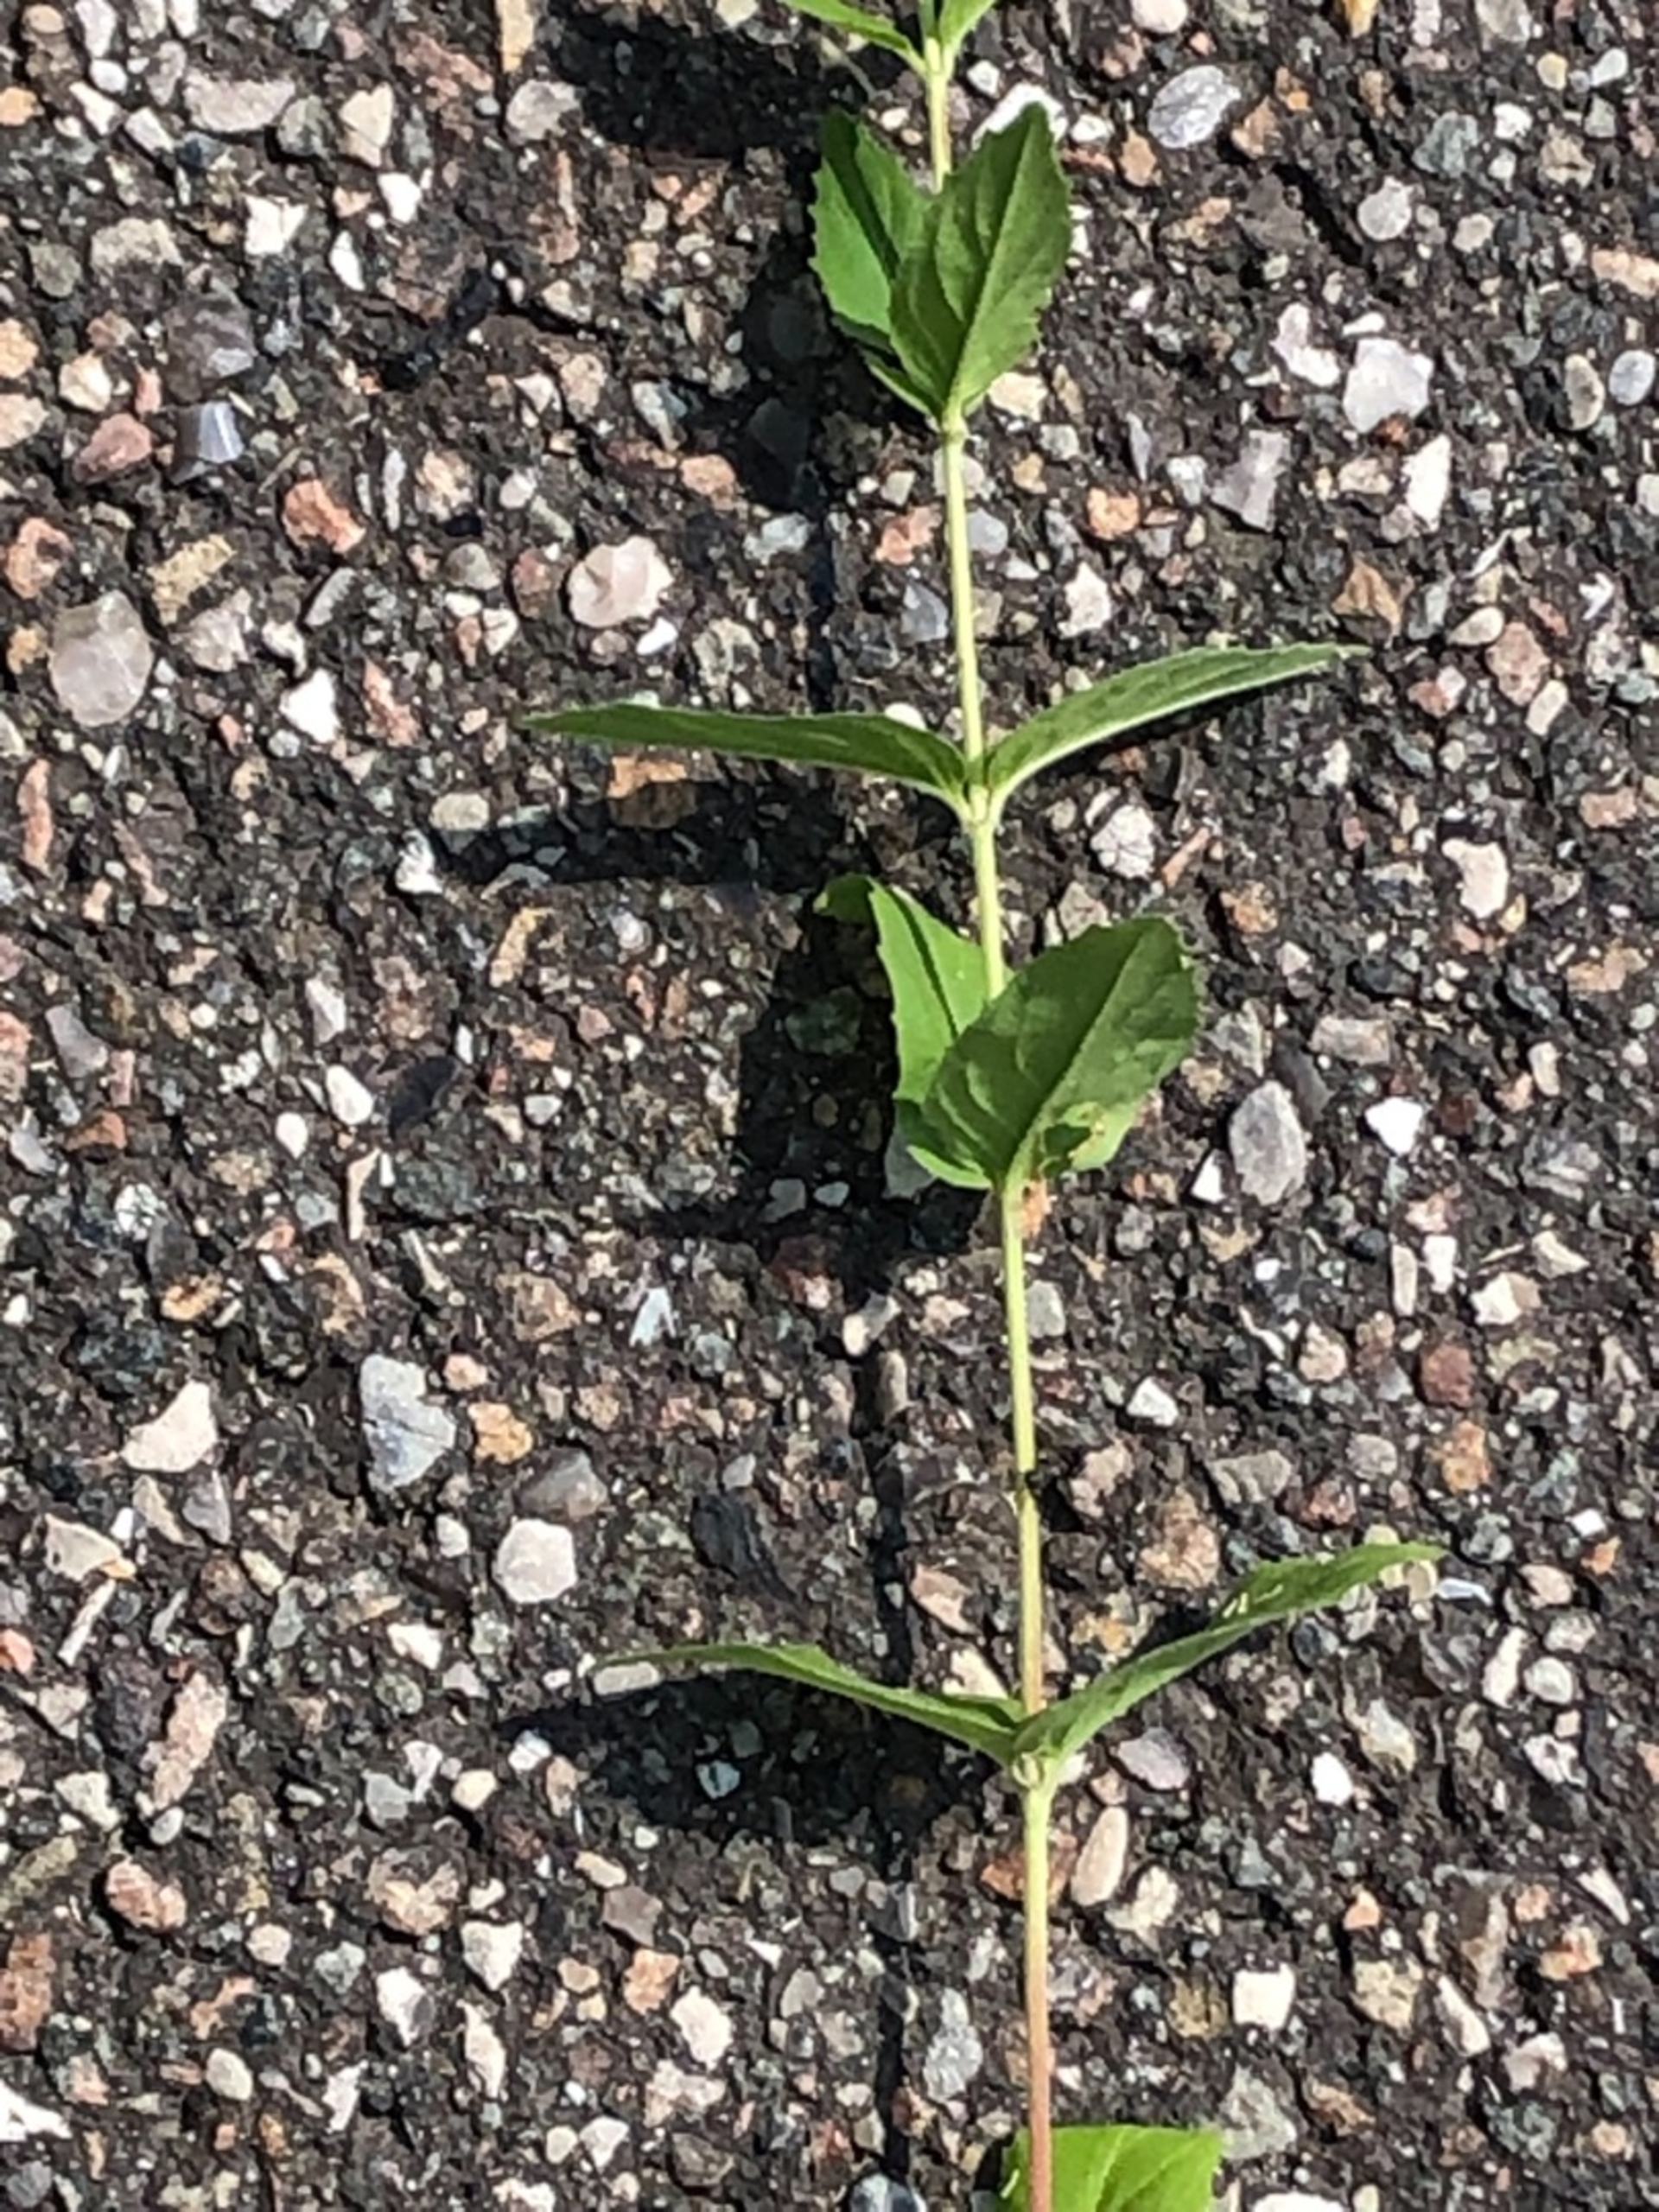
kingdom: Plantae
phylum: Tracheophyta
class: Magnoliopsida
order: Myrtales
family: Onagraceae
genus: Epilobium
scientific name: Epilobium montanum
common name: Glat dueurt
